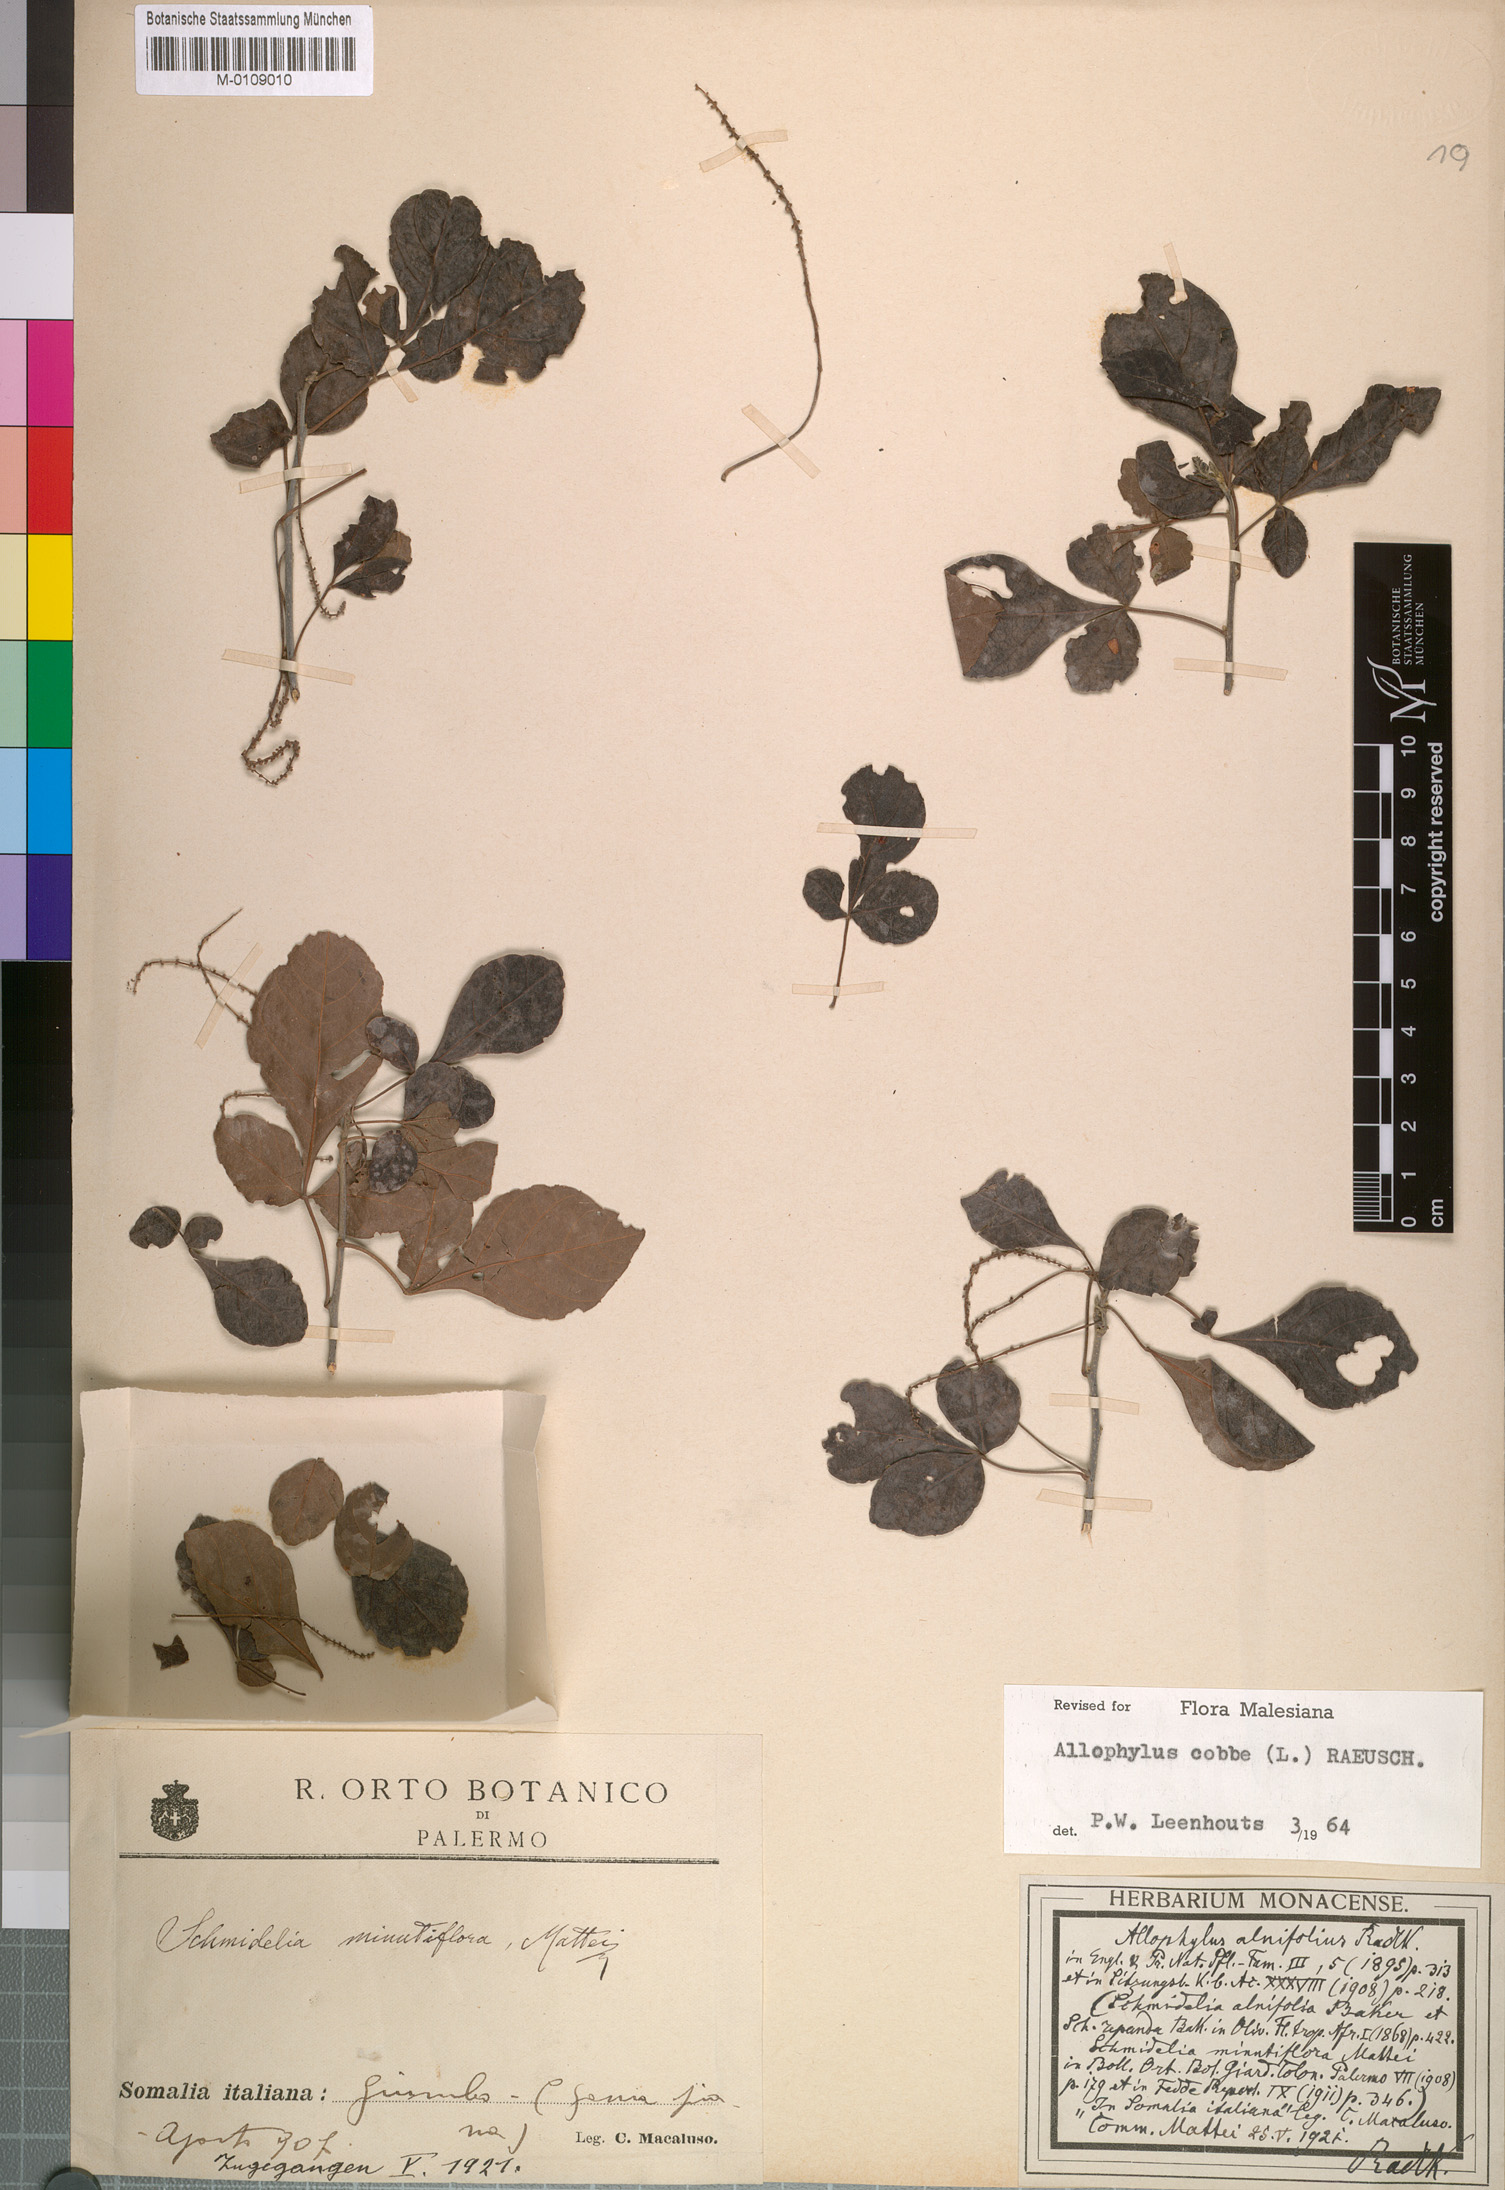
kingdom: Plantae
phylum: Tracheophyta
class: Magnoliopsida
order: Sapindales
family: Sapindaceae
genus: Allophylus
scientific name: Allophylus rubifolius
